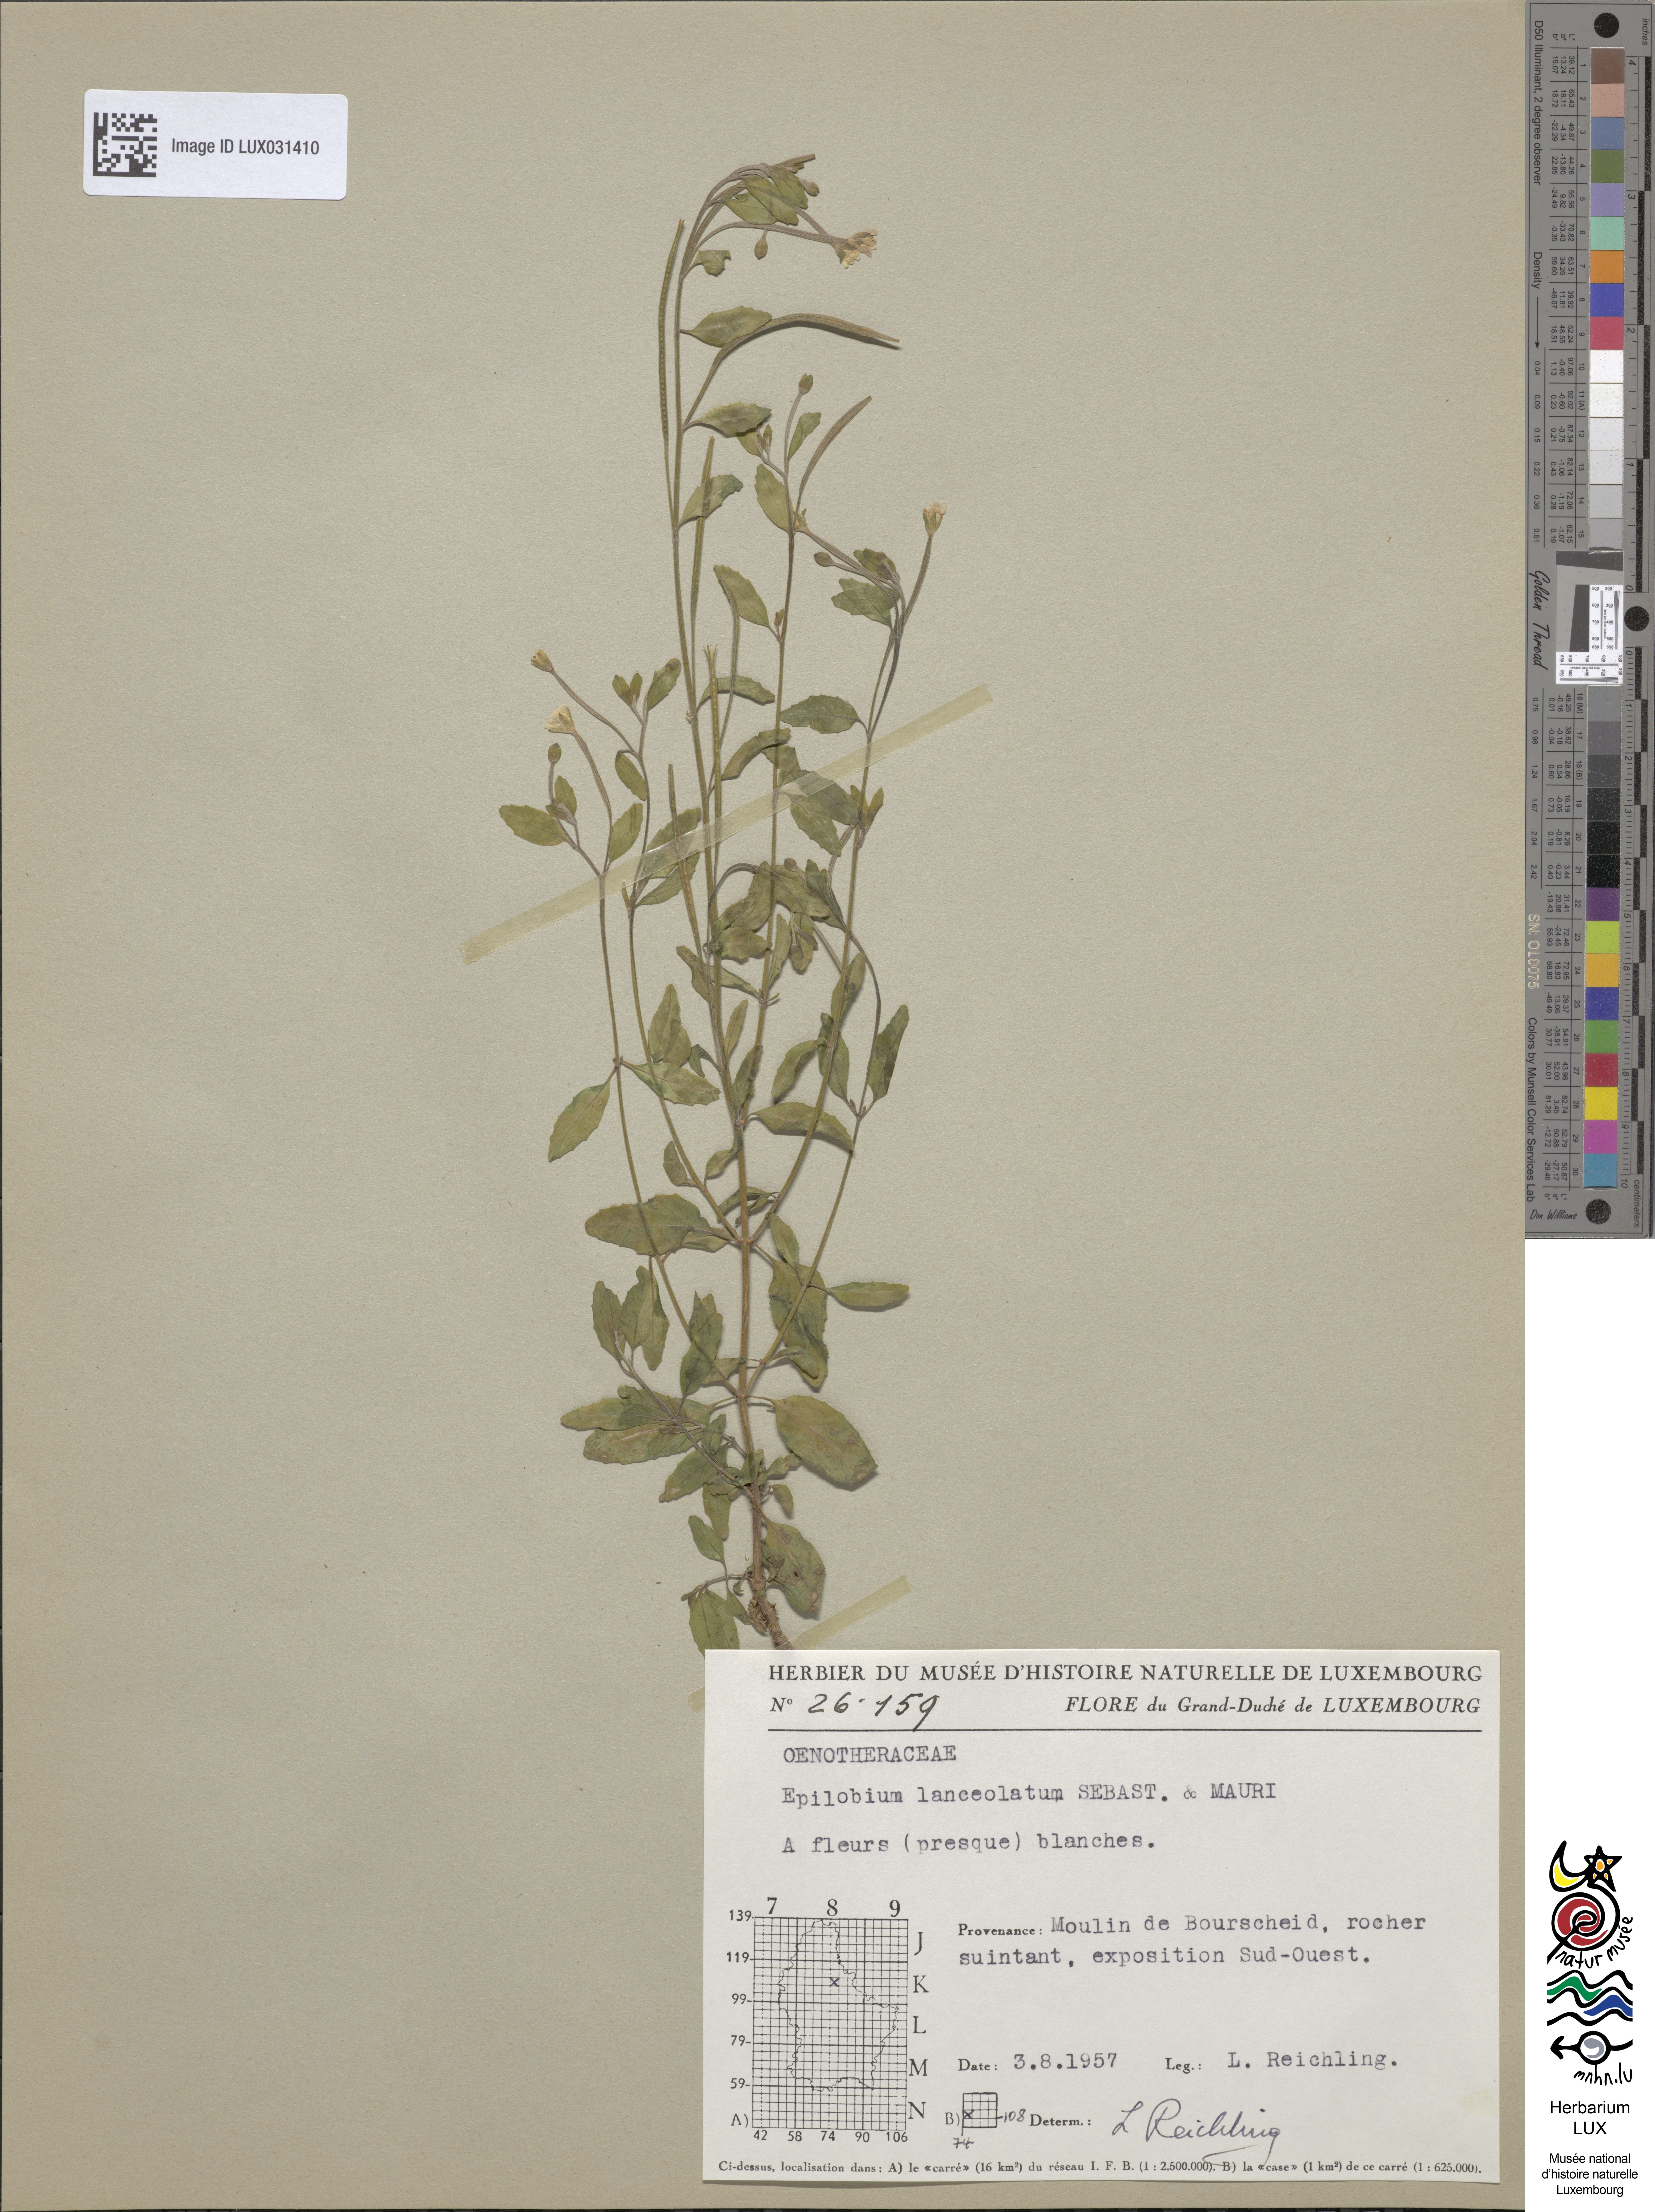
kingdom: Plantae
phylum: Tracheophyta
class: Magnoliopsida
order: Myrtales
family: Onagraceae
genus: Epilobium
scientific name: Epilobium lanceolatum
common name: Spear-leaved willowherb
